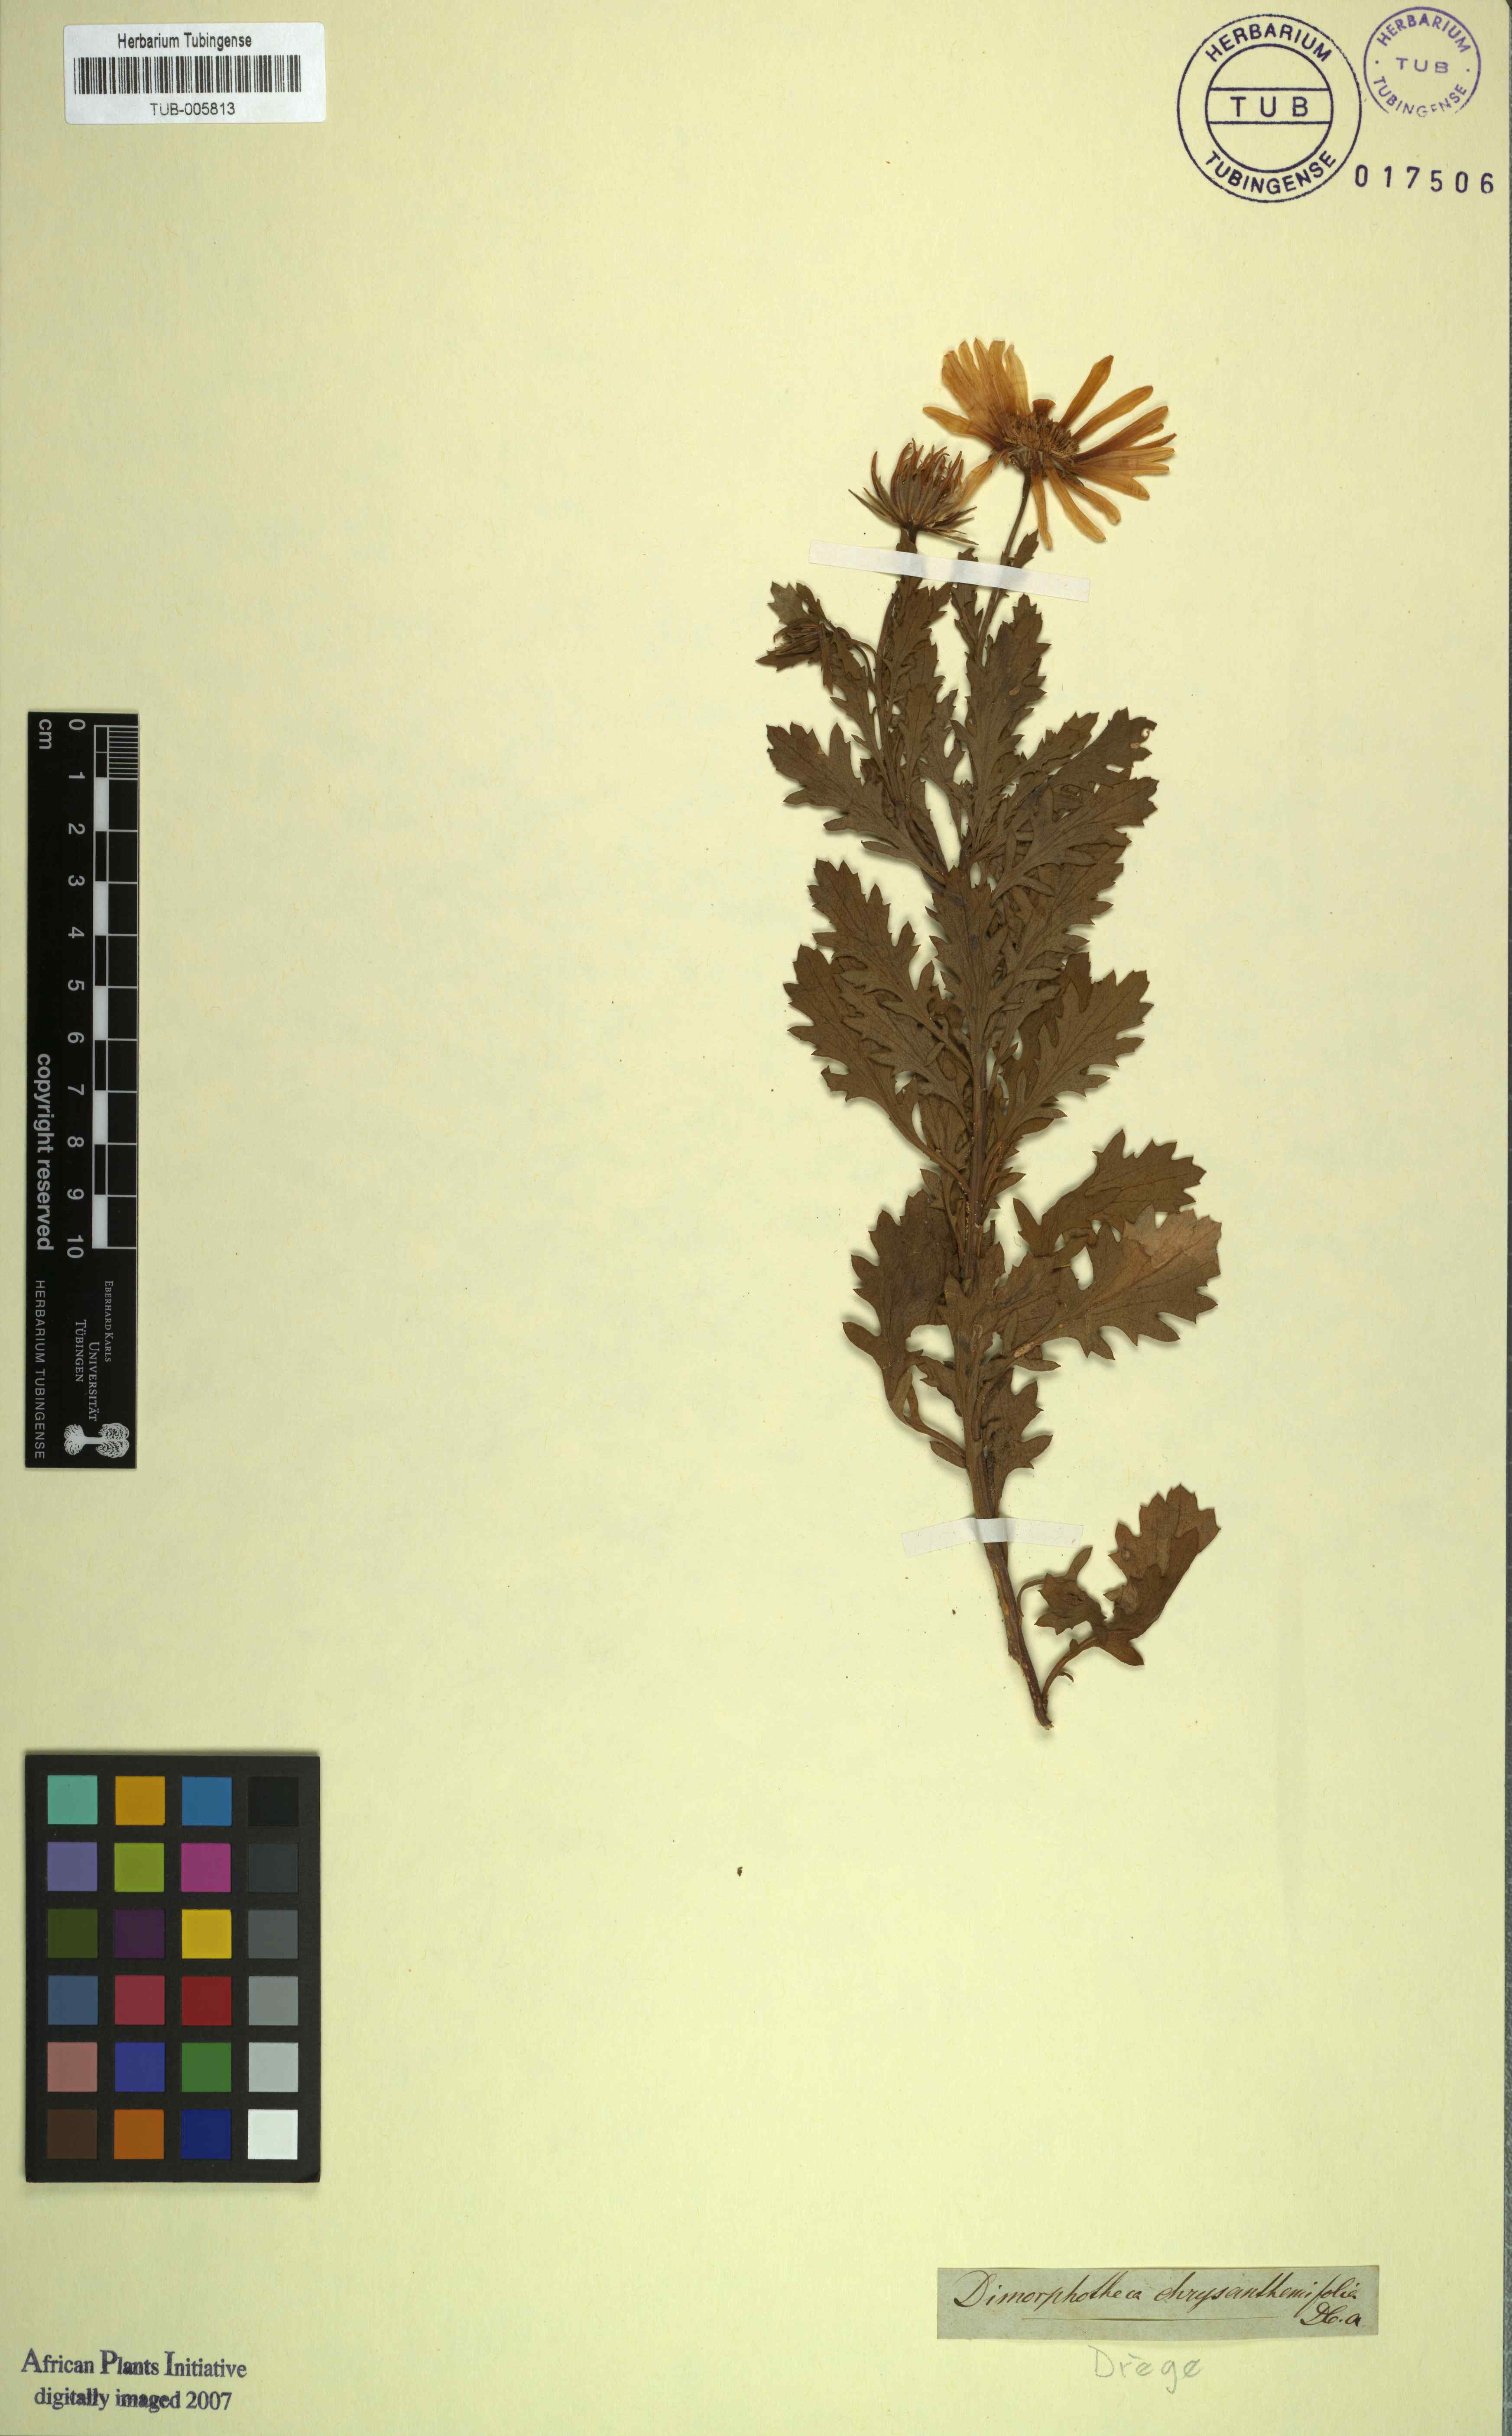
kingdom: Plantae
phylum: Tracheophyta
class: Magnoliopsida
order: Asterales
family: Asteraceae
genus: Dimorphotheca
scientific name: Dimorphotheca chrysanthemifolia
